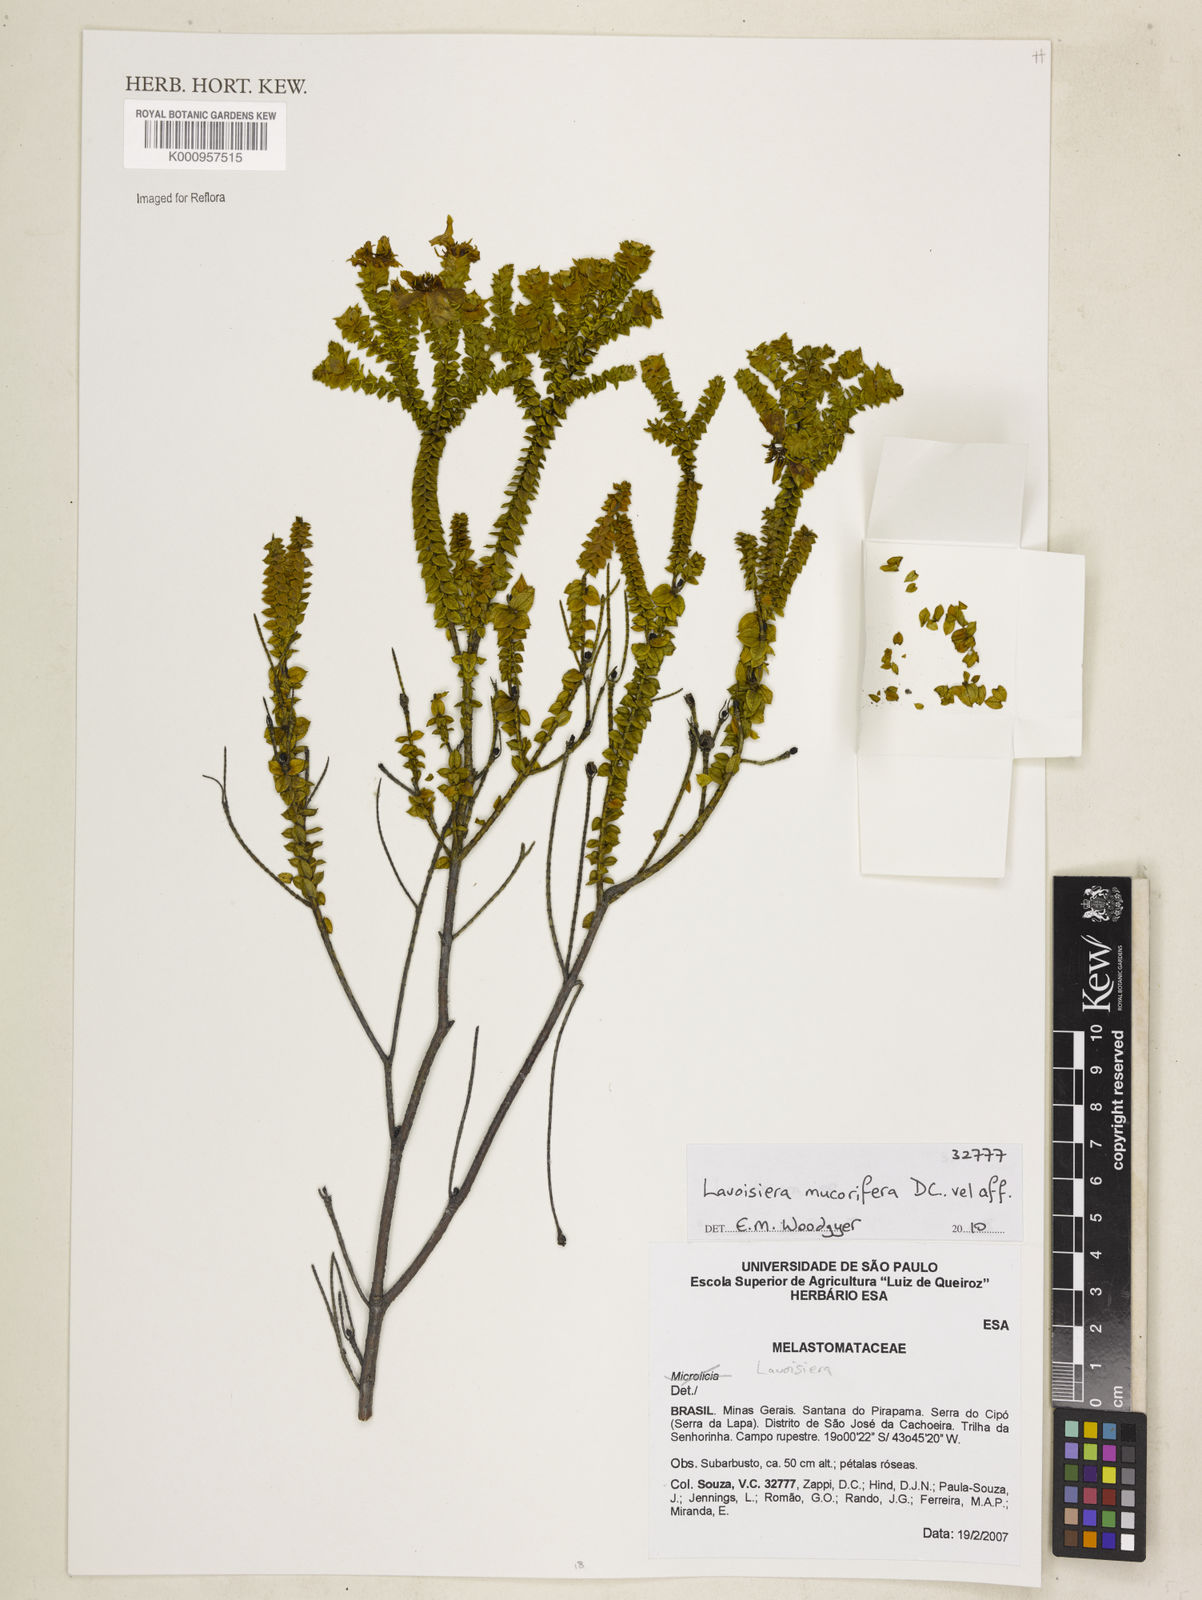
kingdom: Plantae
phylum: Tracheophyta
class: Magnoliopsida
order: Myrtales
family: Melastomataceae
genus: Microlicia
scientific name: Microlicia mucorifera
